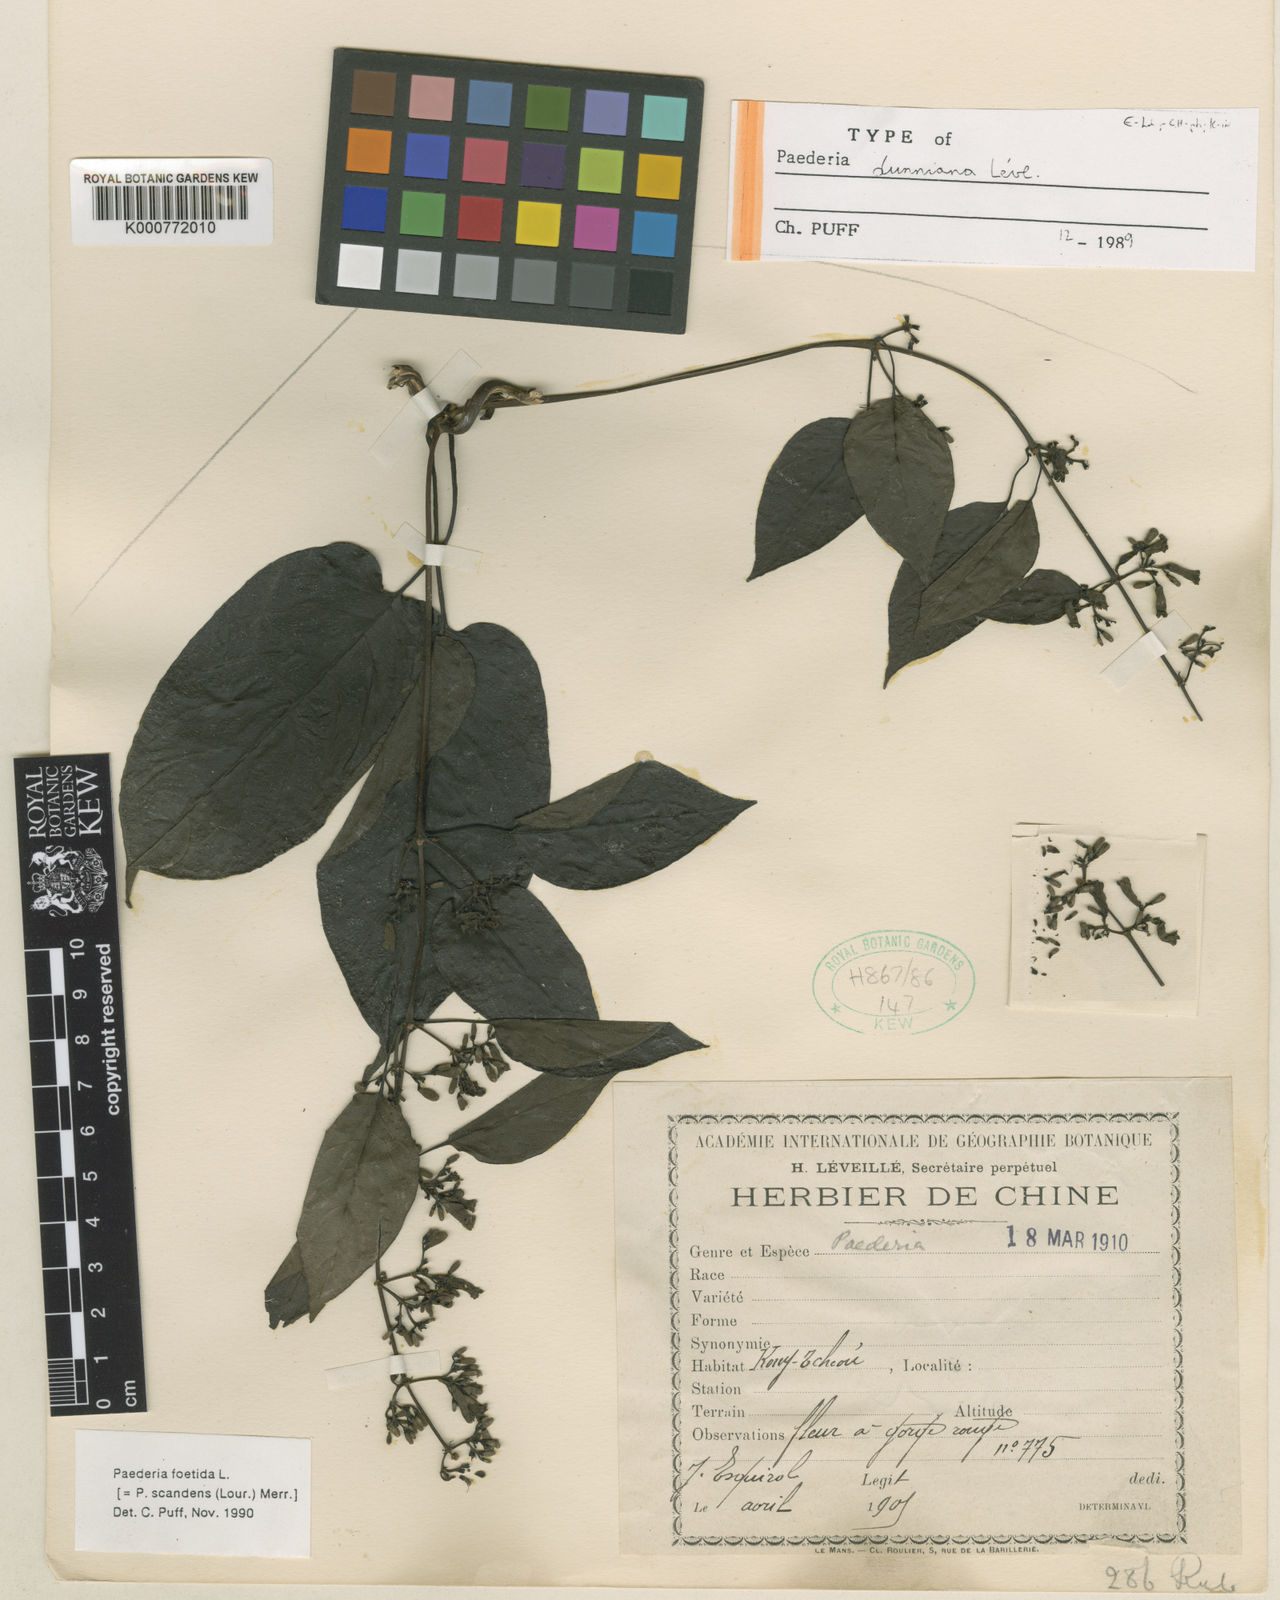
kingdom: Plantae
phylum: Tracheophyta
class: Magnoliopsida
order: Gentianales
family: Rubiaceae
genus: Paederia
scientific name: Paederia foetida
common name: Stinkvine
